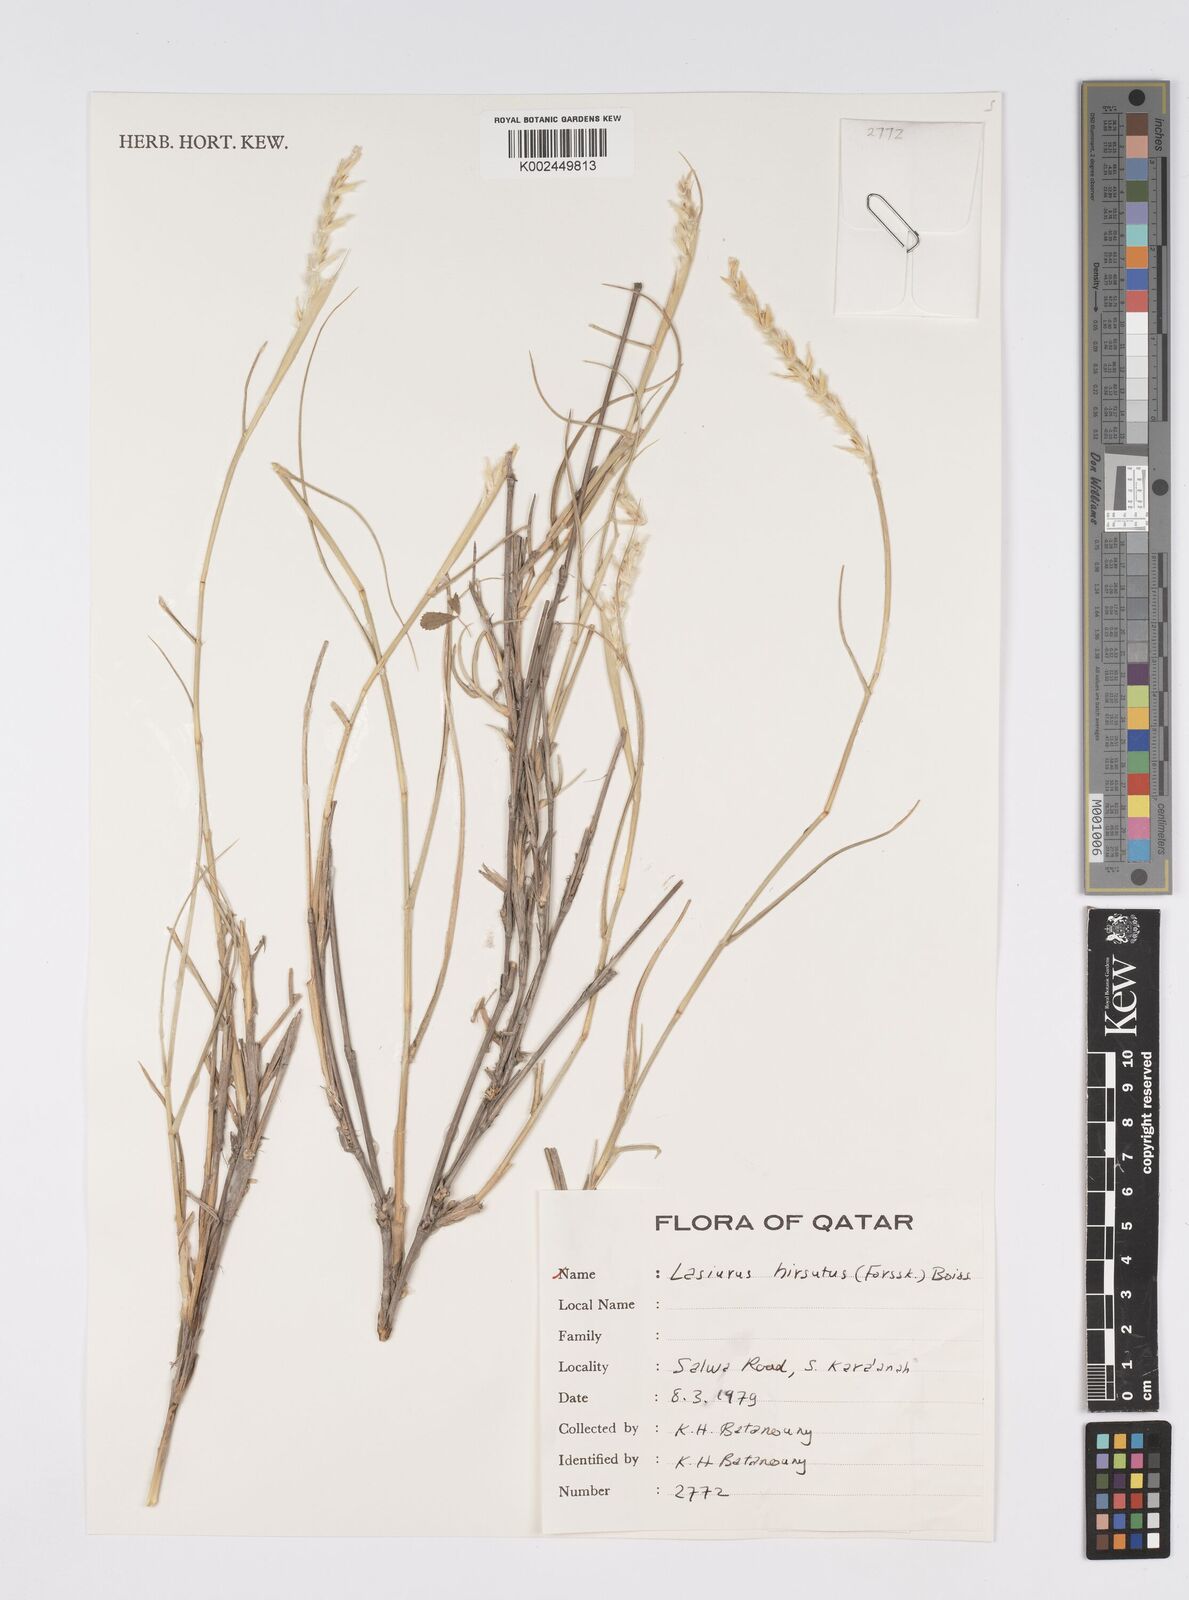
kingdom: Plantae
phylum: Tracheophyta
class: Liliopsida
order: Poales
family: Poaceae
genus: Lasiurus
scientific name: Lasiurus scindicus
